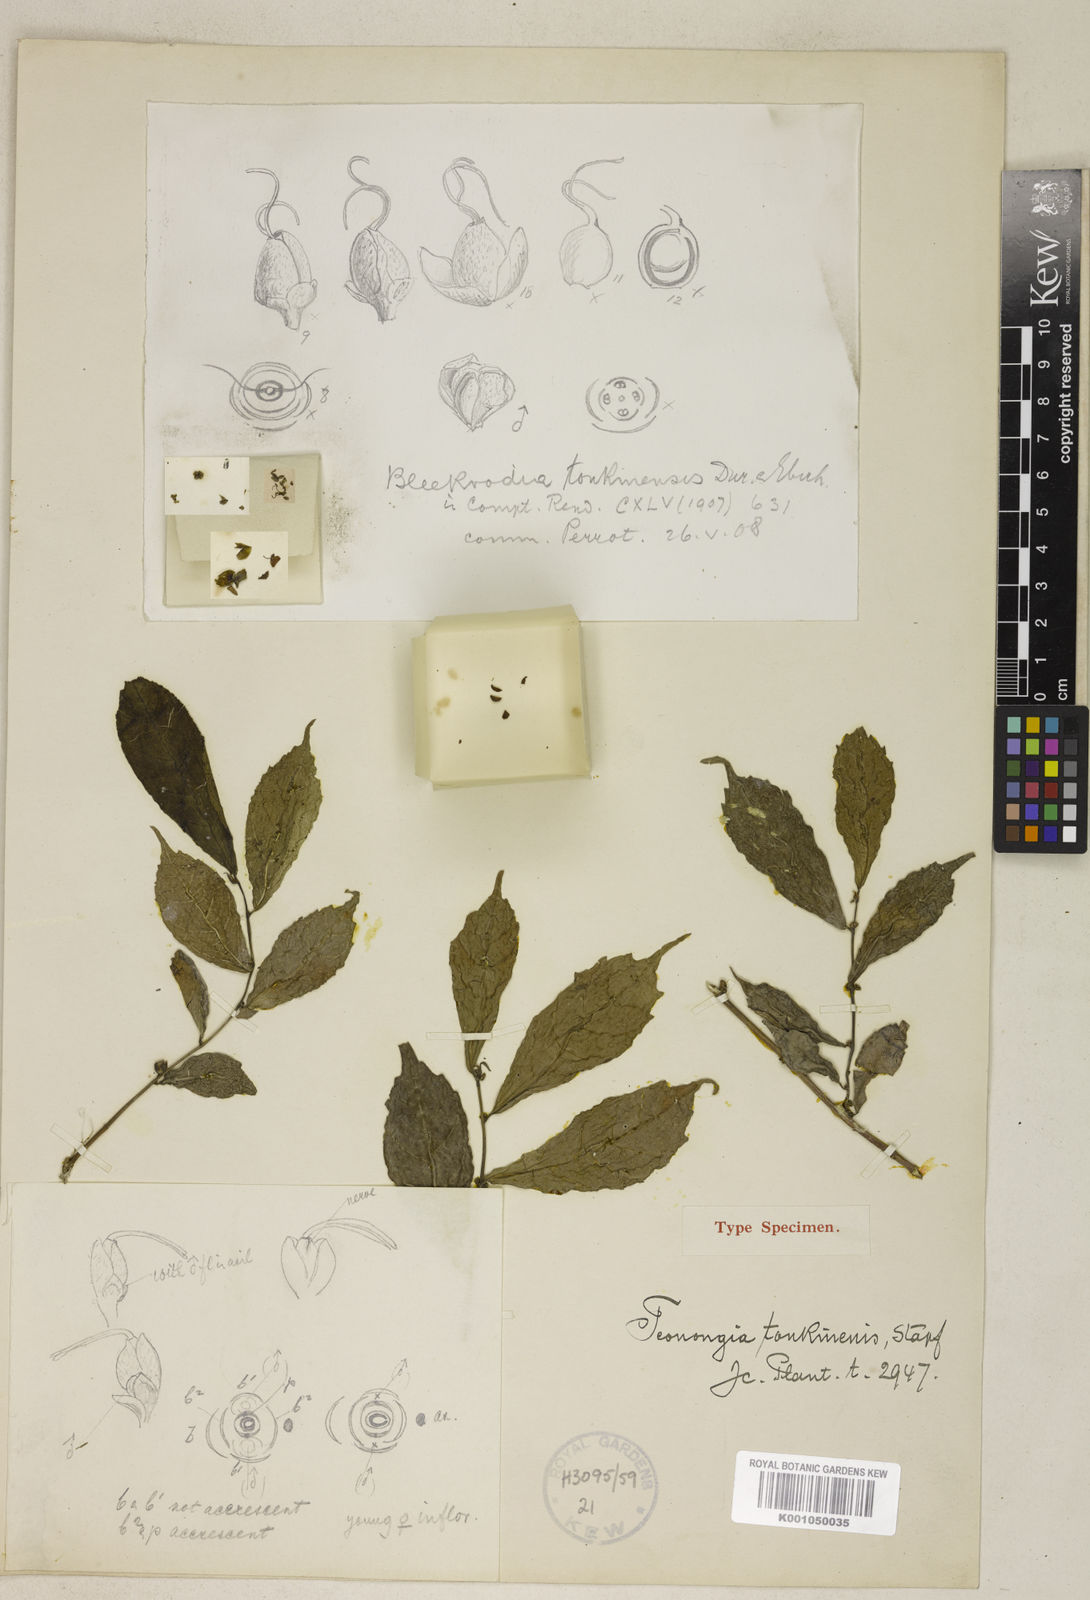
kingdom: Plantae
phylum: Tracheophyta
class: Magnoliopsida
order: Rosales
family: Moraceae
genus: Streblus
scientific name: Streblus
